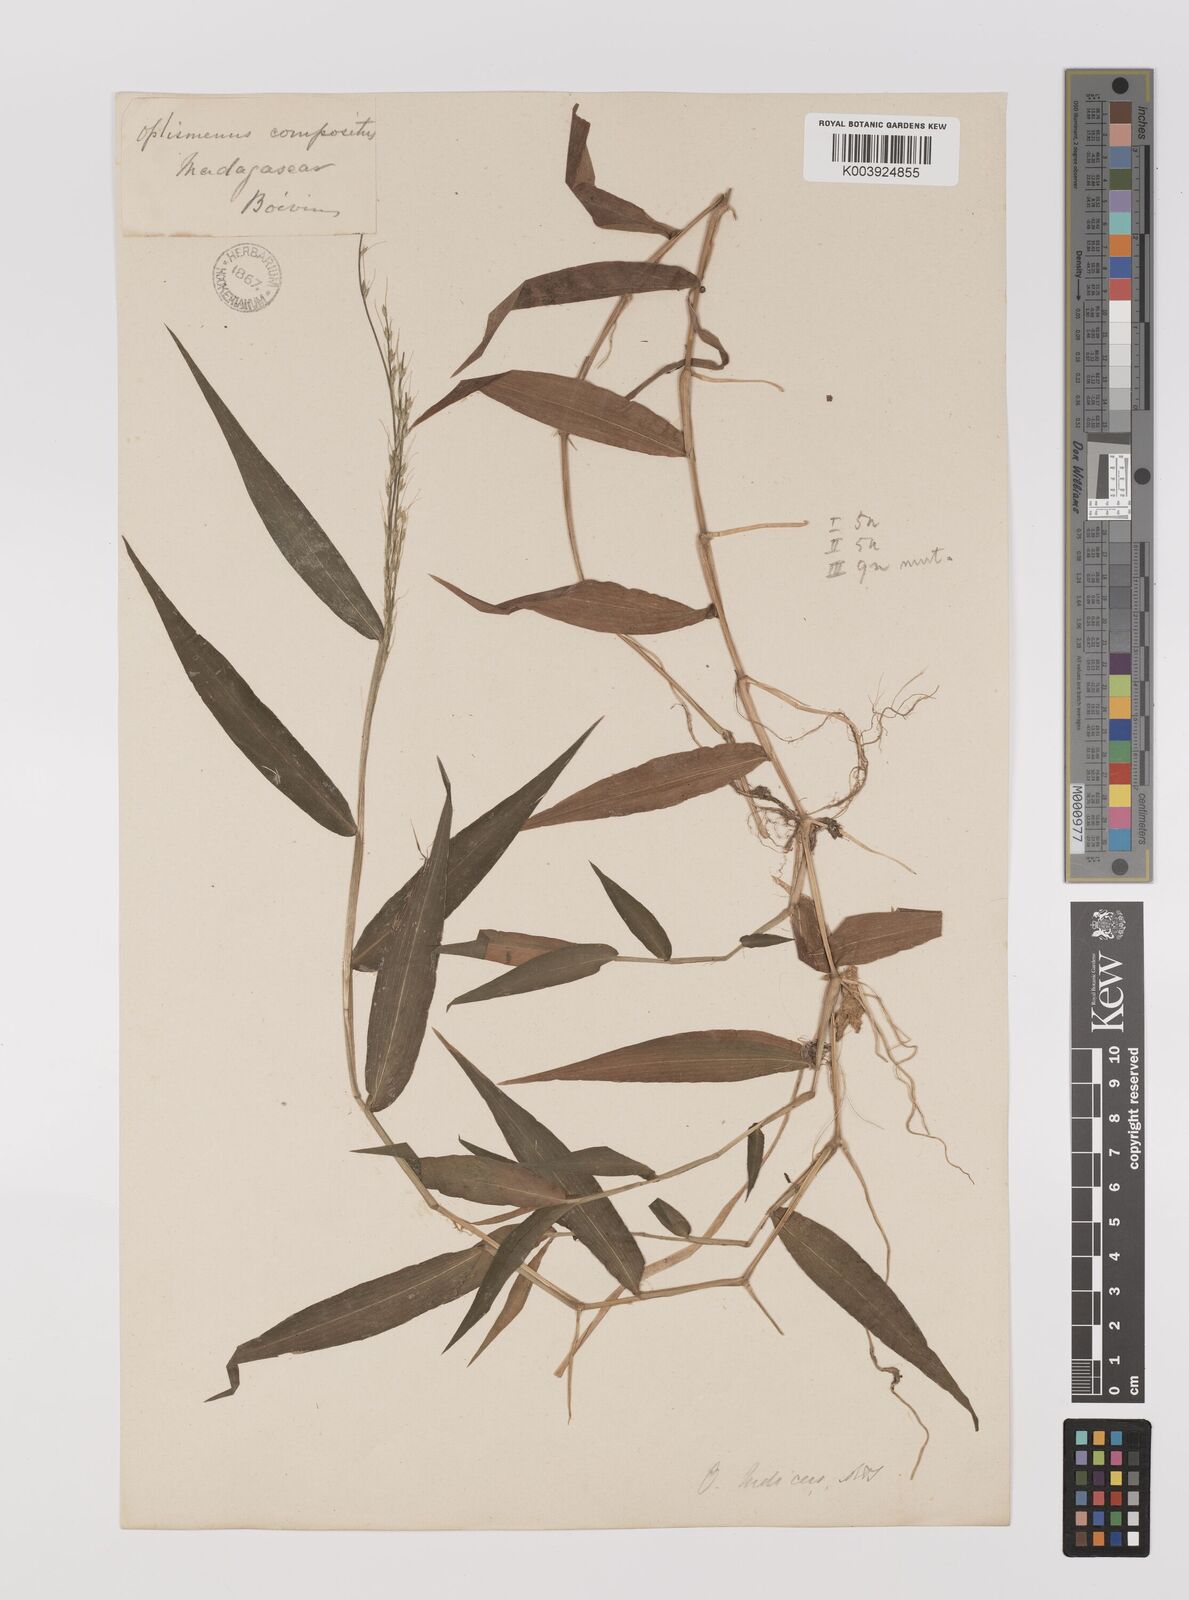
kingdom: Plantae
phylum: Tracheophyta
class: Liliopsida
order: Poales
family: Poaceae
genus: Oplismenus
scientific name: Oplismenus compositus
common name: Running mountain grass
